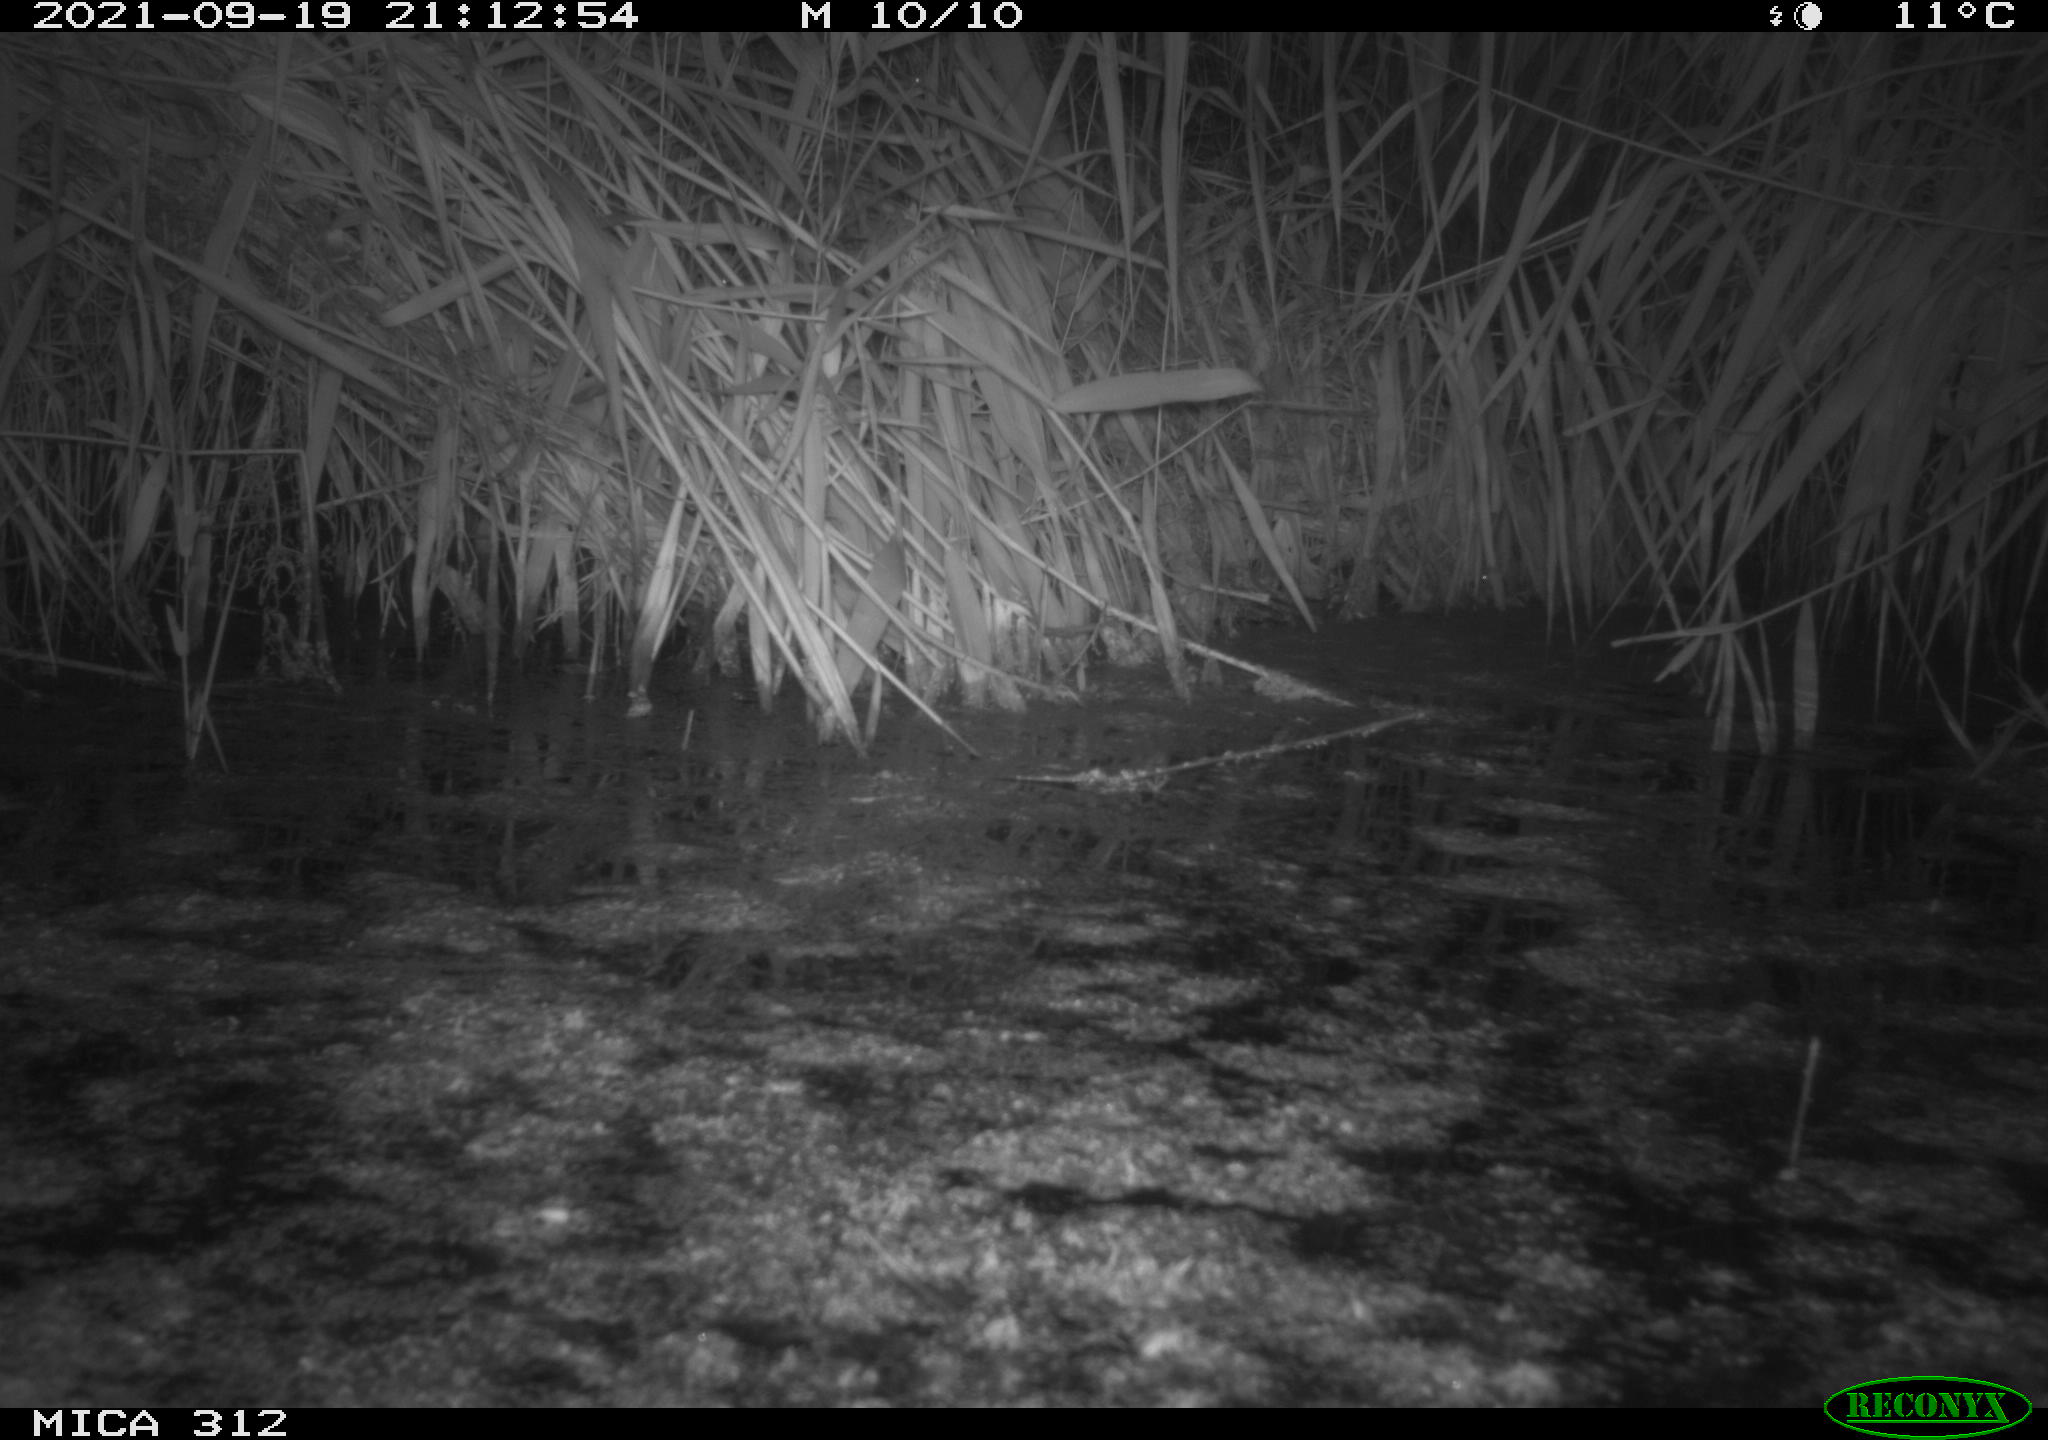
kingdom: Animalia
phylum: Chordata
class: Mammalia
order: Rodentia
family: Muridae
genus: Rattus
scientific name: Rattus norvegicus
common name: Brown rat
